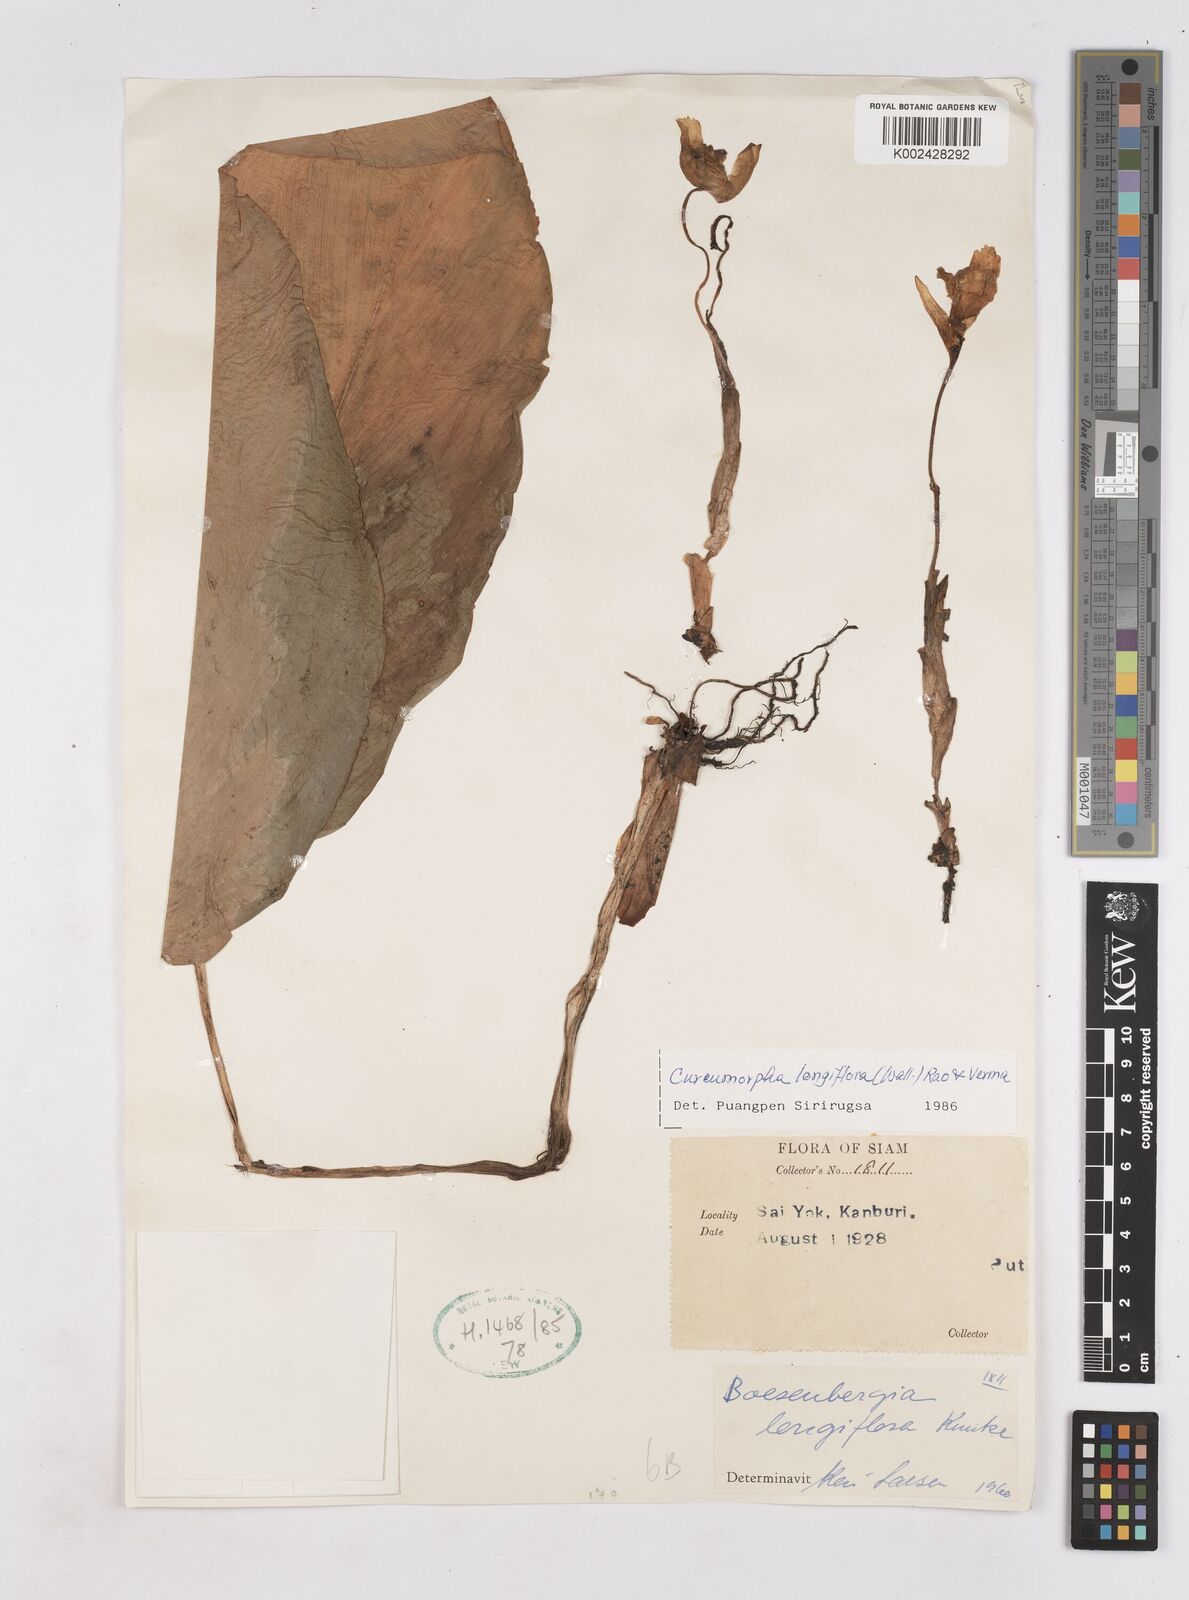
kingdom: Plantae
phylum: Tracheophyta
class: Liliopsida
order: Zingiberales
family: Zingiberaceae
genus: Boesenbergia
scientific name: Boesenbergia longiflora
